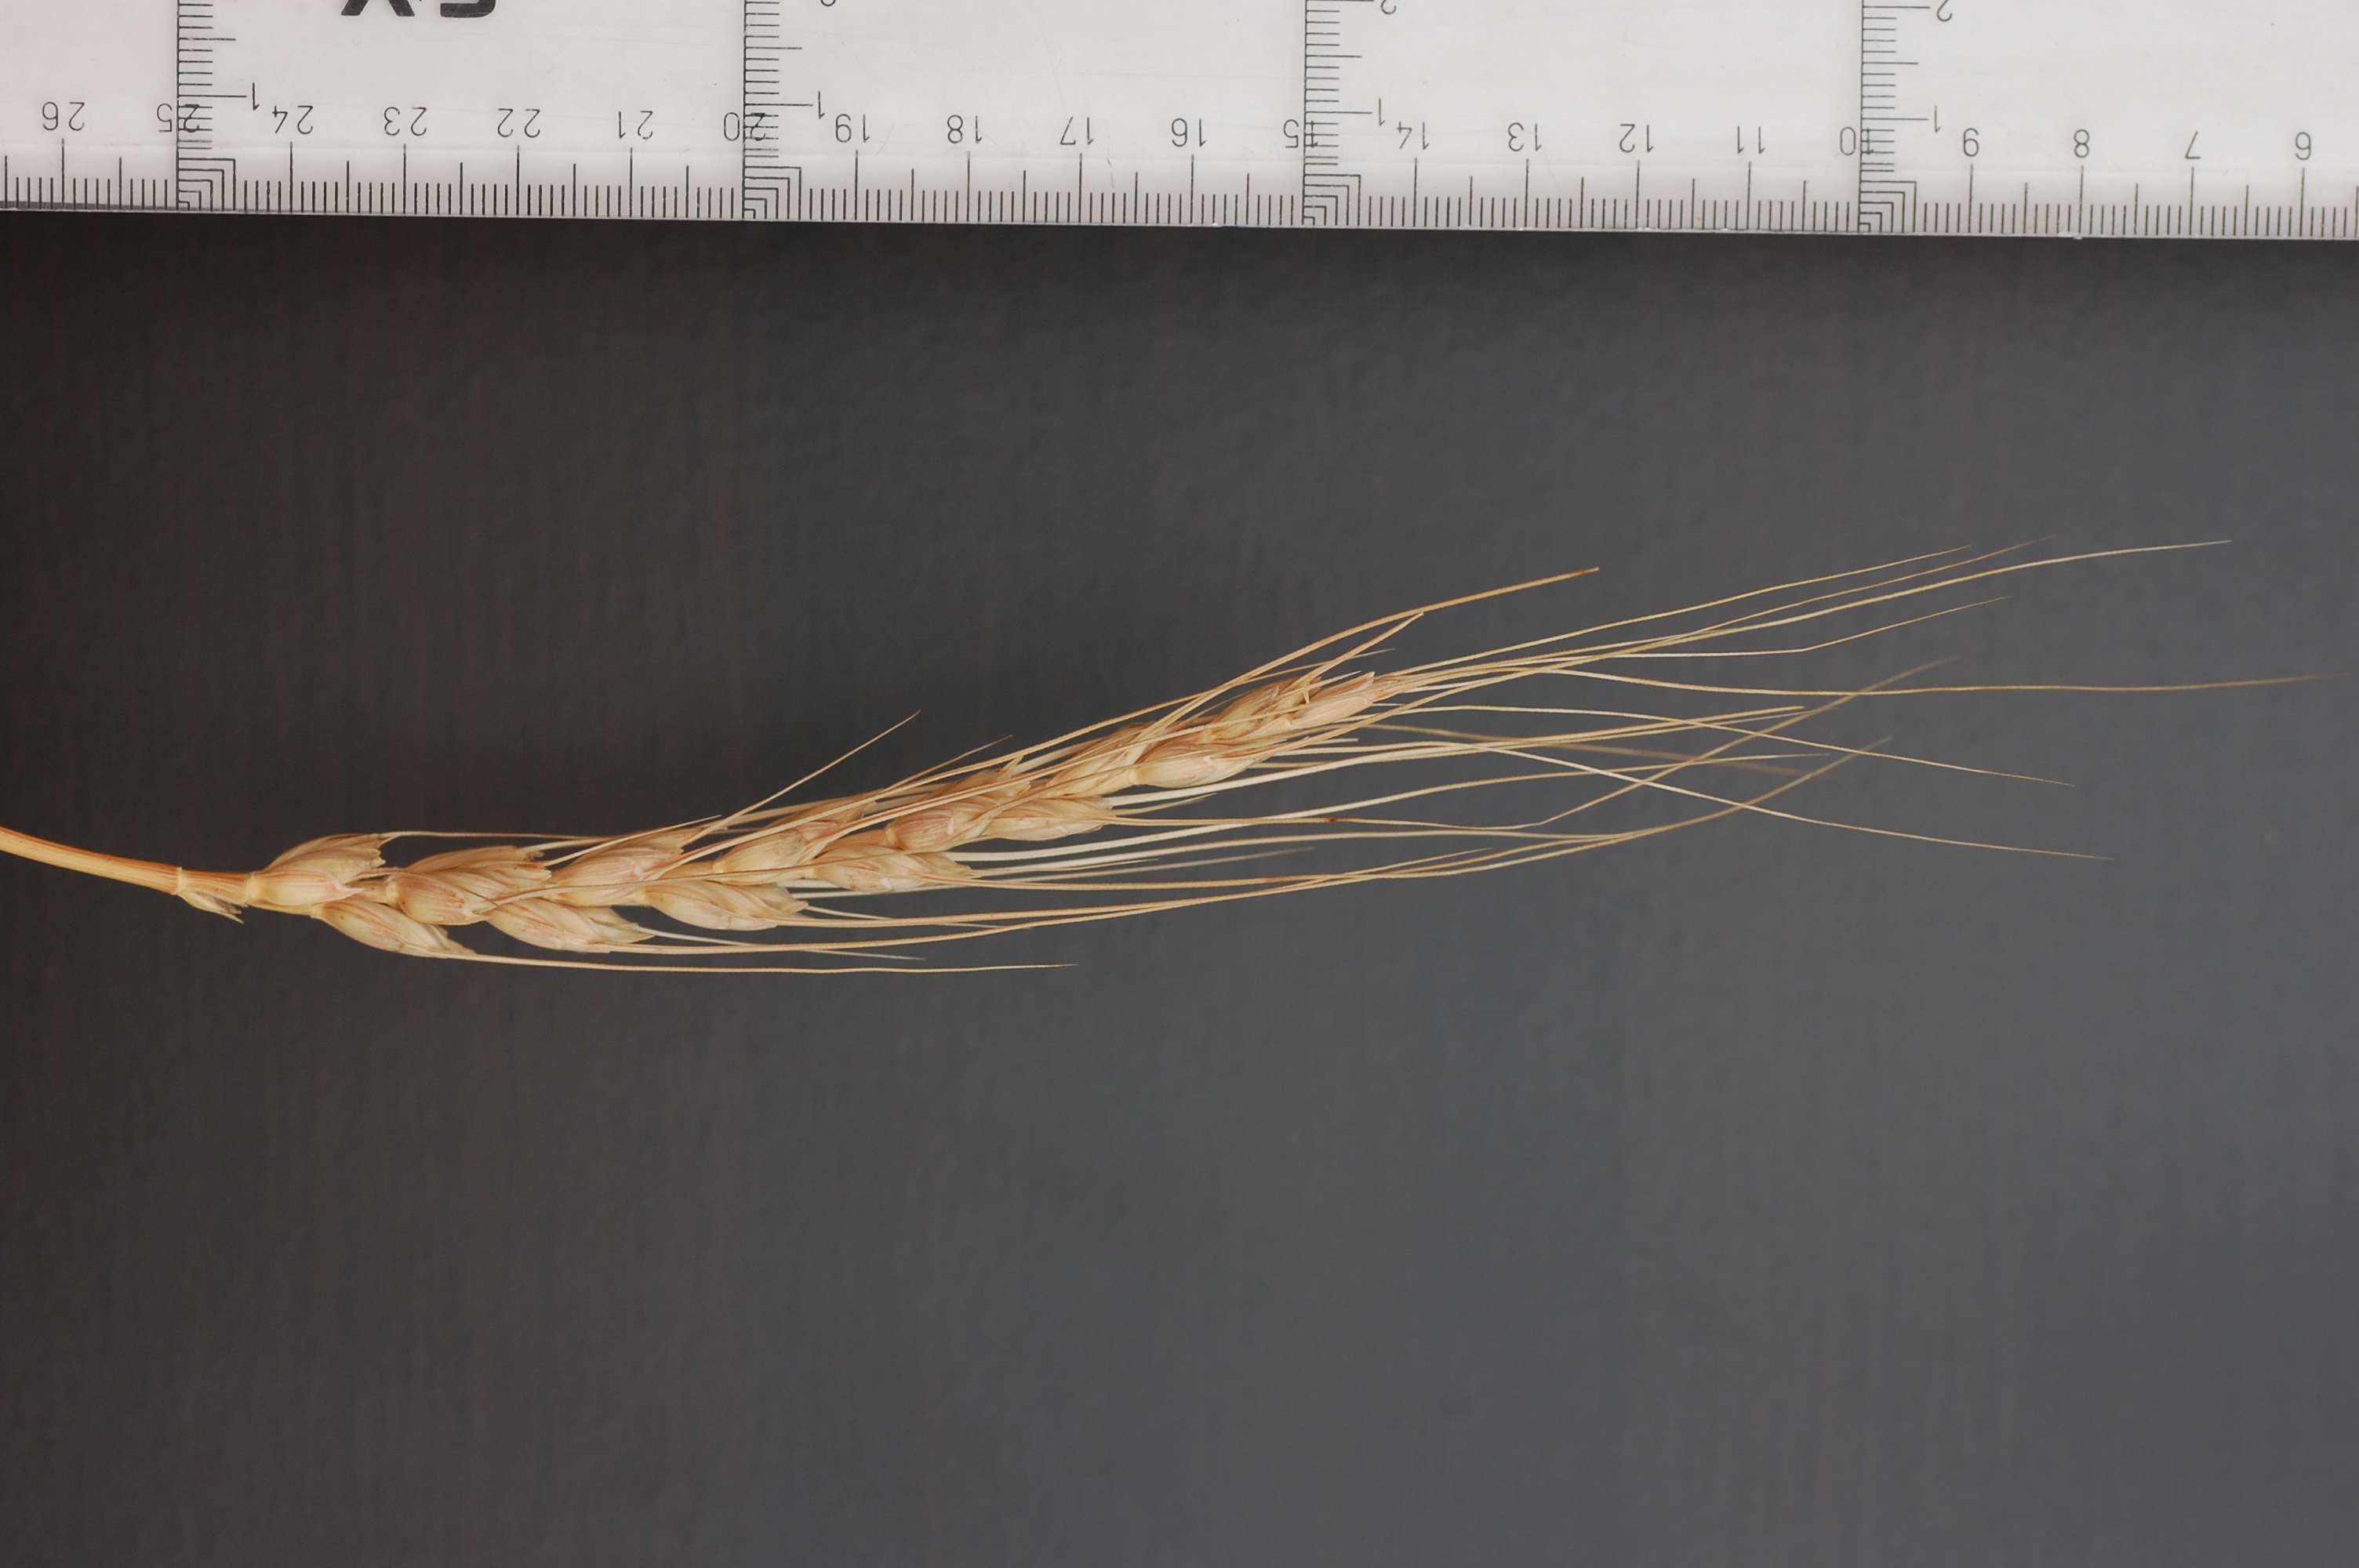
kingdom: Plantae
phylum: Tracheophyta
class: Liliopsida
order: Poales
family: Poaceae
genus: Triticum
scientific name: Triticum aestivum
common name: Common wheat
